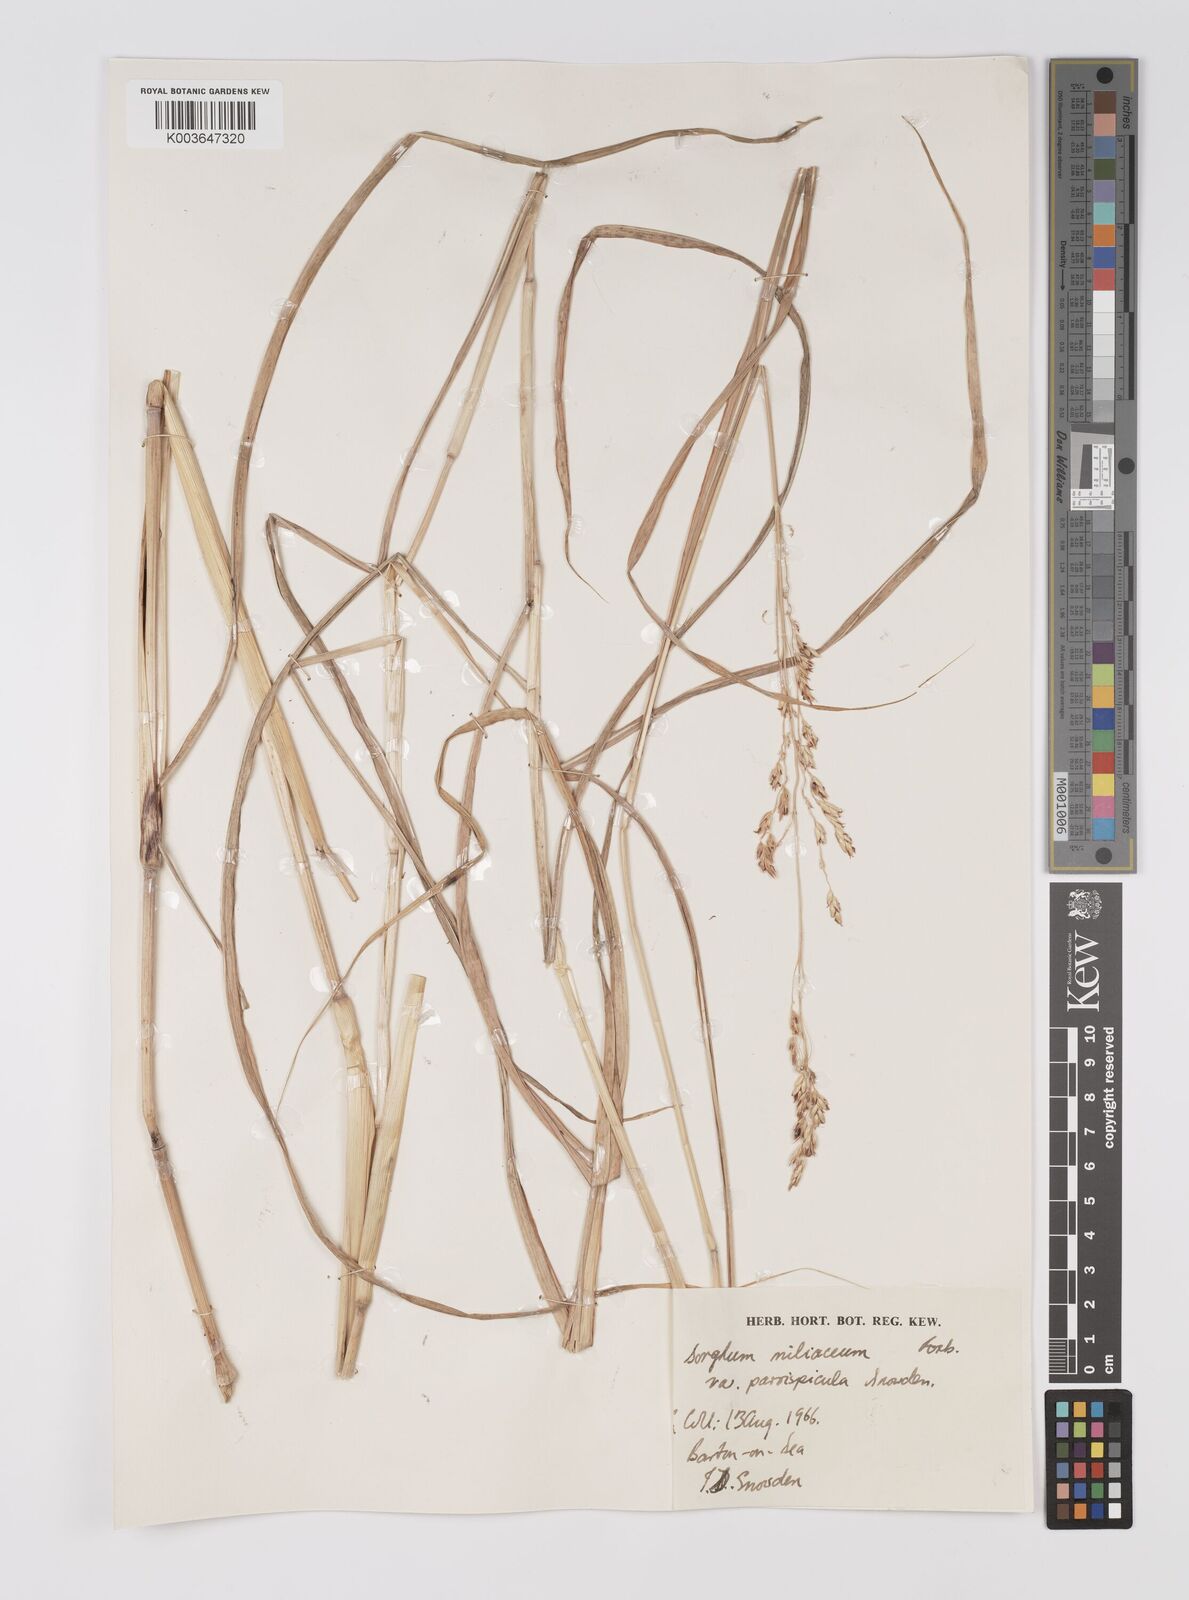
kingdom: Plantae
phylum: Tracheophyta
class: Liliopsida
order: Poales
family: Poaceae
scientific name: Poaceae
